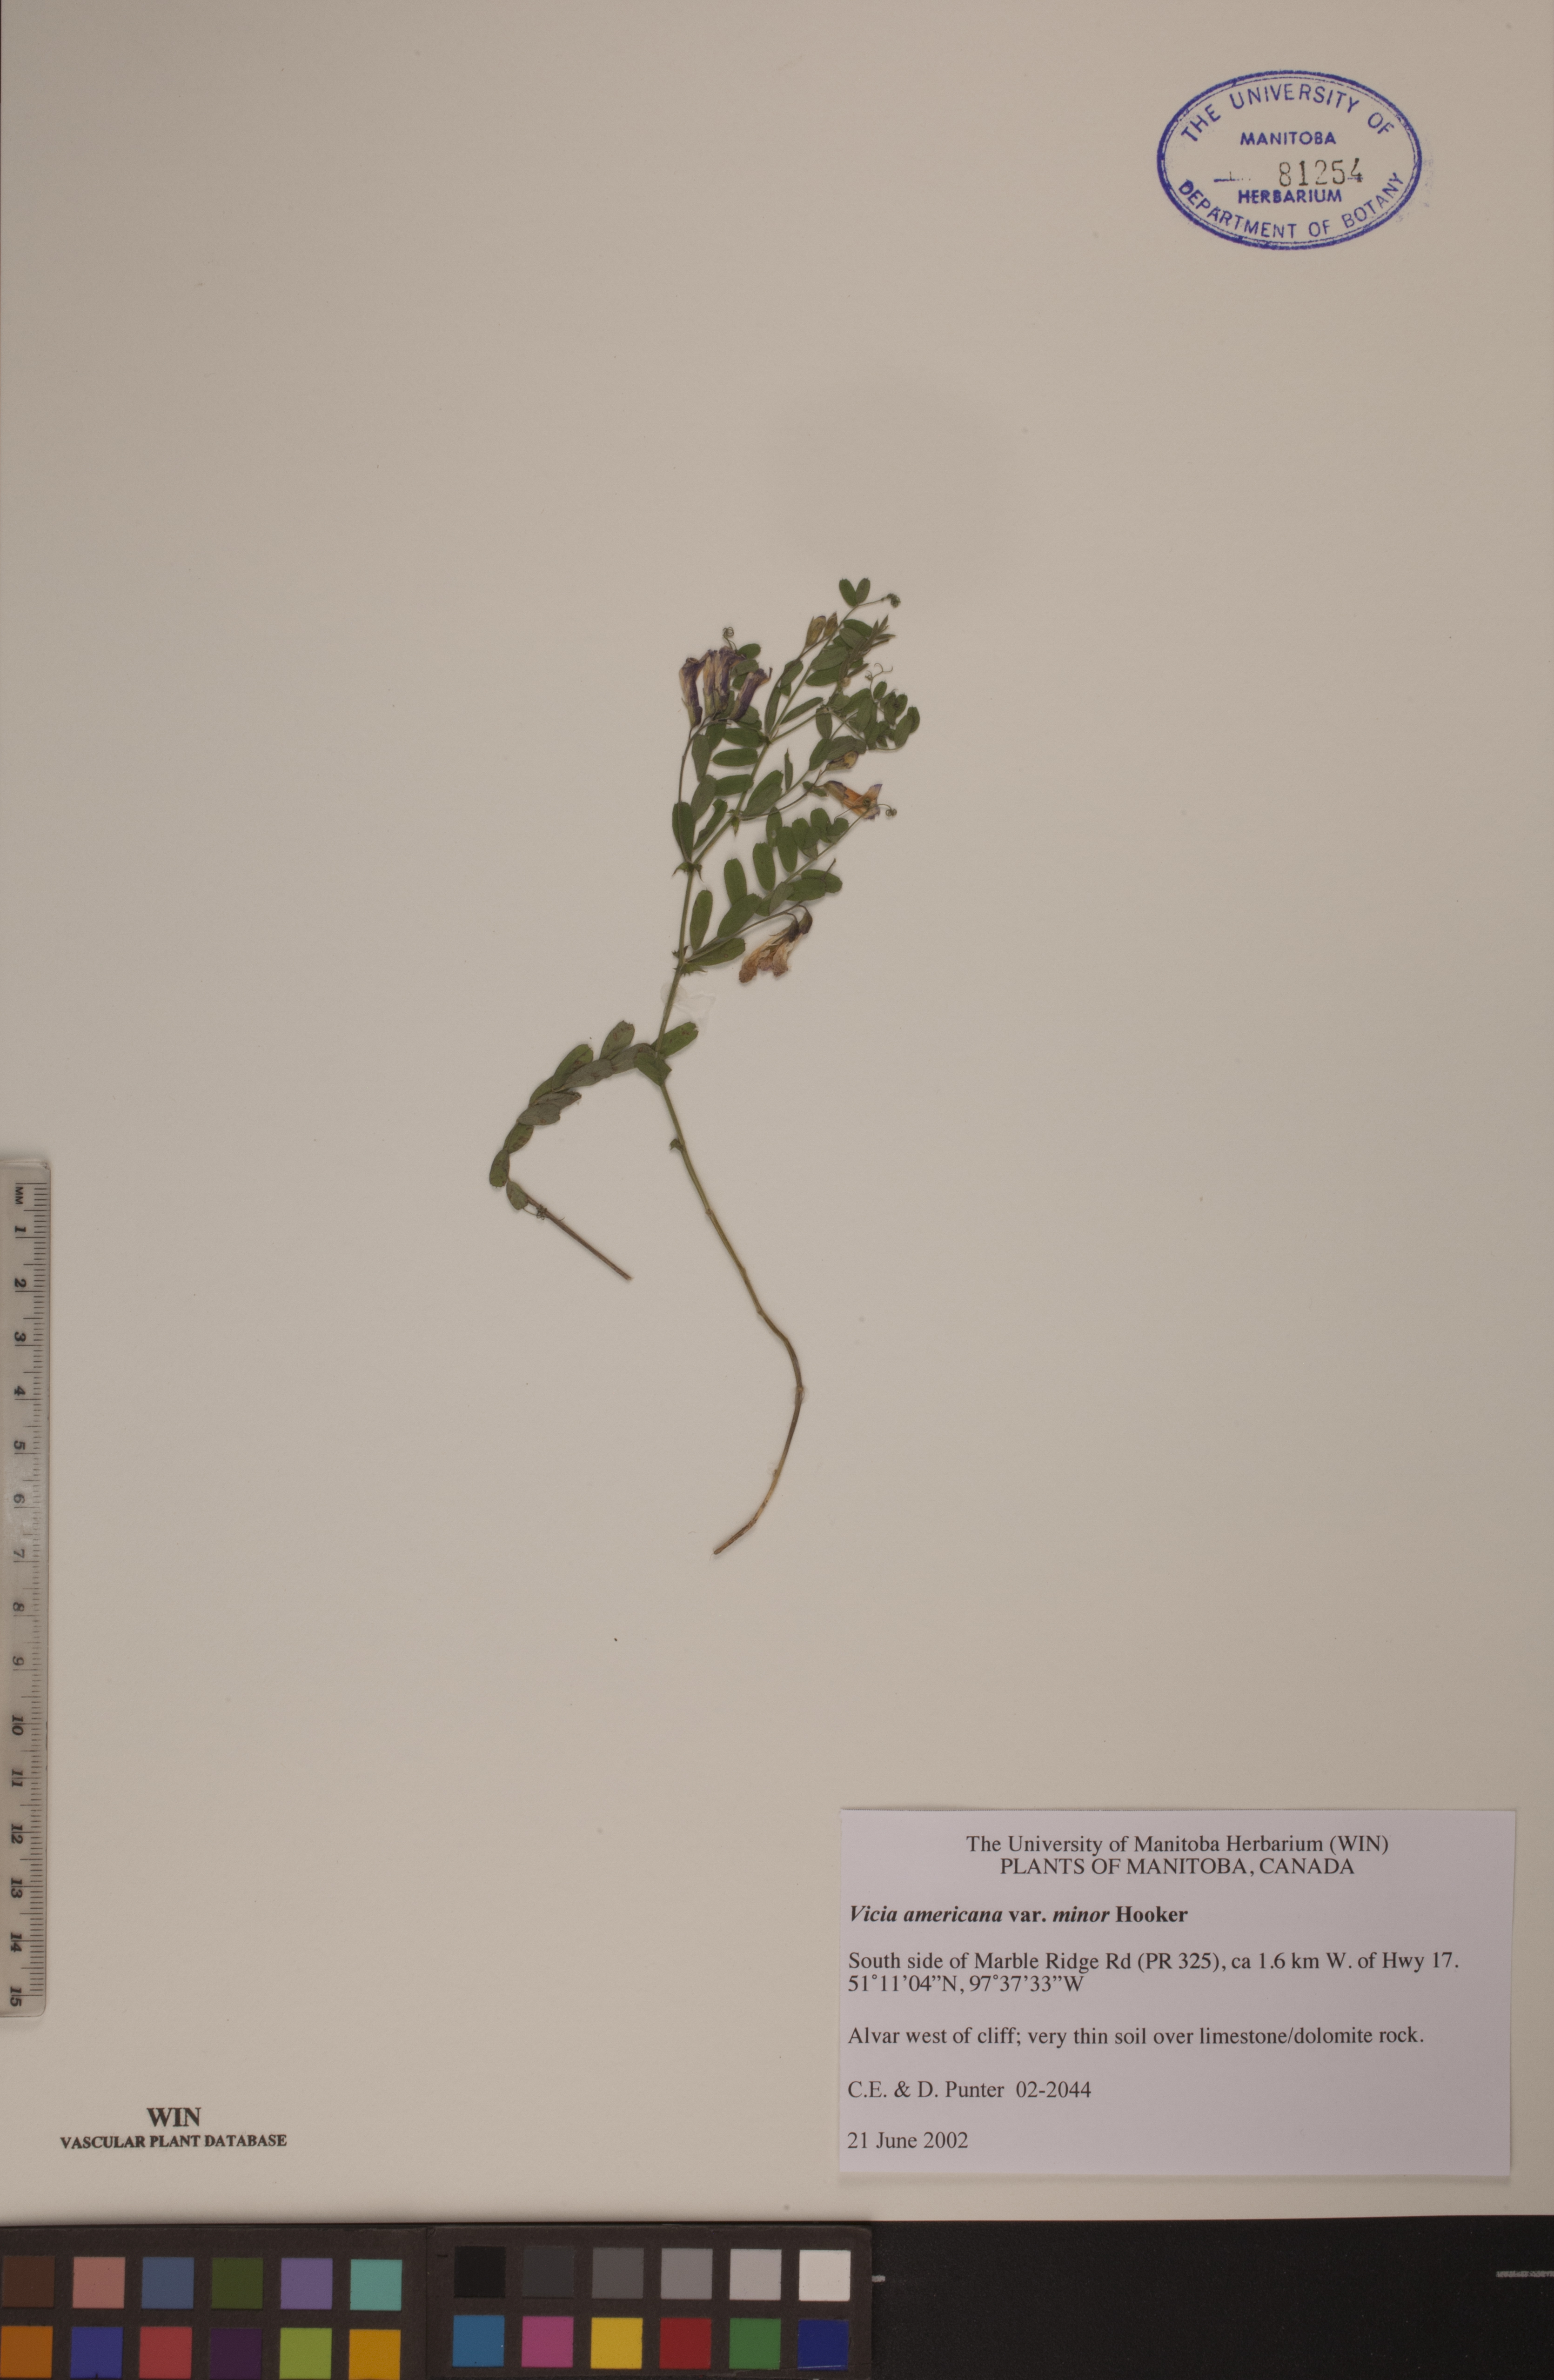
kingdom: Plantae
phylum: Tracheophyta
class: Magnoliopsida
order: Fabales
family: Fabaceae
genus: Vicia
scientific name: Vicia americana
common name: American vetch
